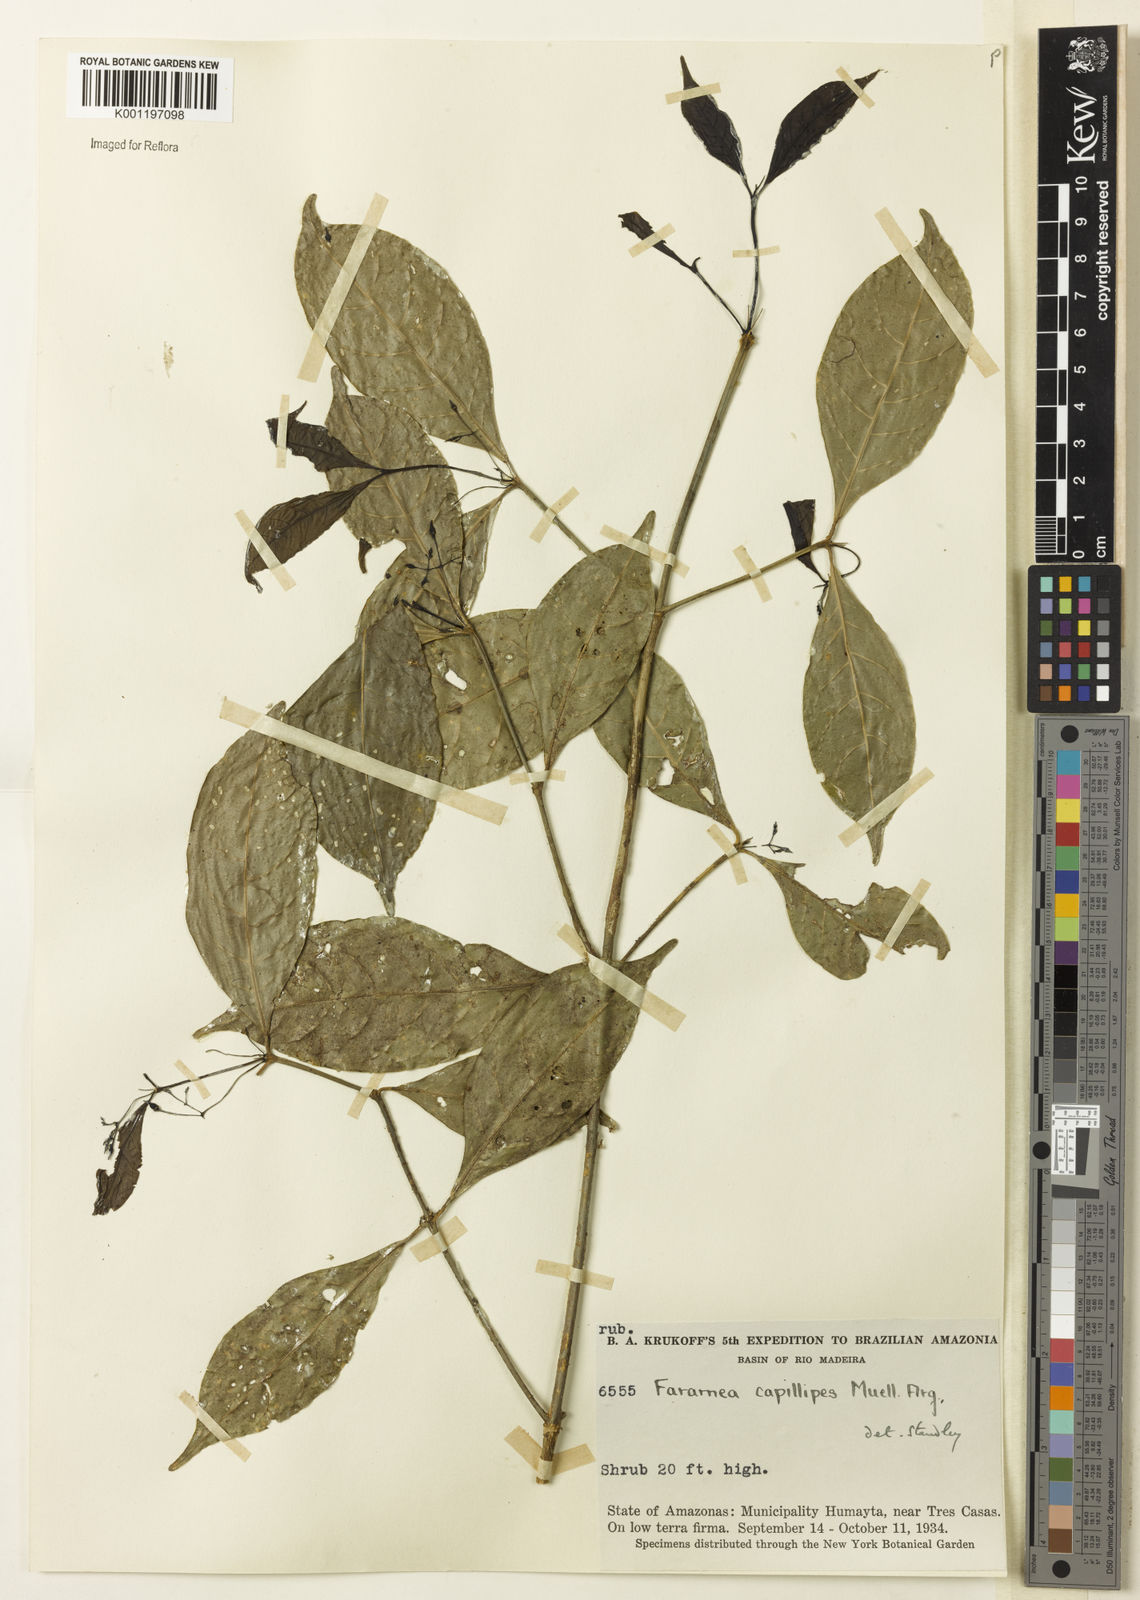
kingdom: Plantae
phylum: Tracheophyta
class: Magnoliopsida
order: Gentianales
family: Rubiaceae
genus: Faramea
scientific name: Faramea
